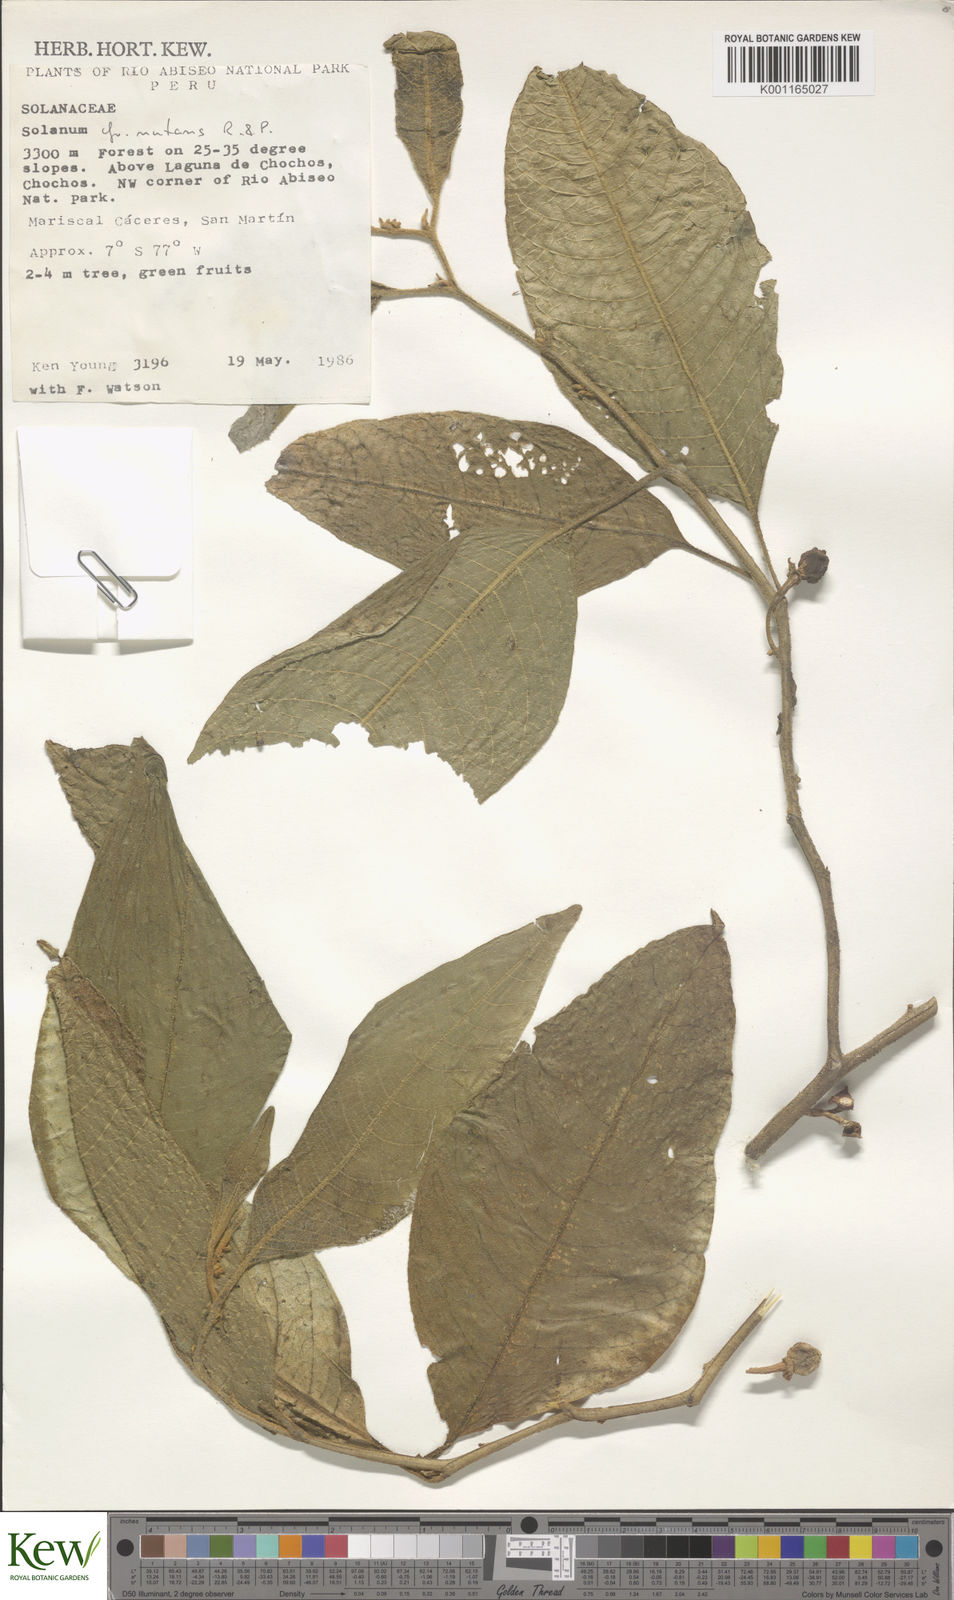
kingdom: Plantae
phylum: Tracheophyta
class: Magnoliopsida
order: Solanales
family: Solanaceae
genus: Solanum
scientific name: Solanum nutans
